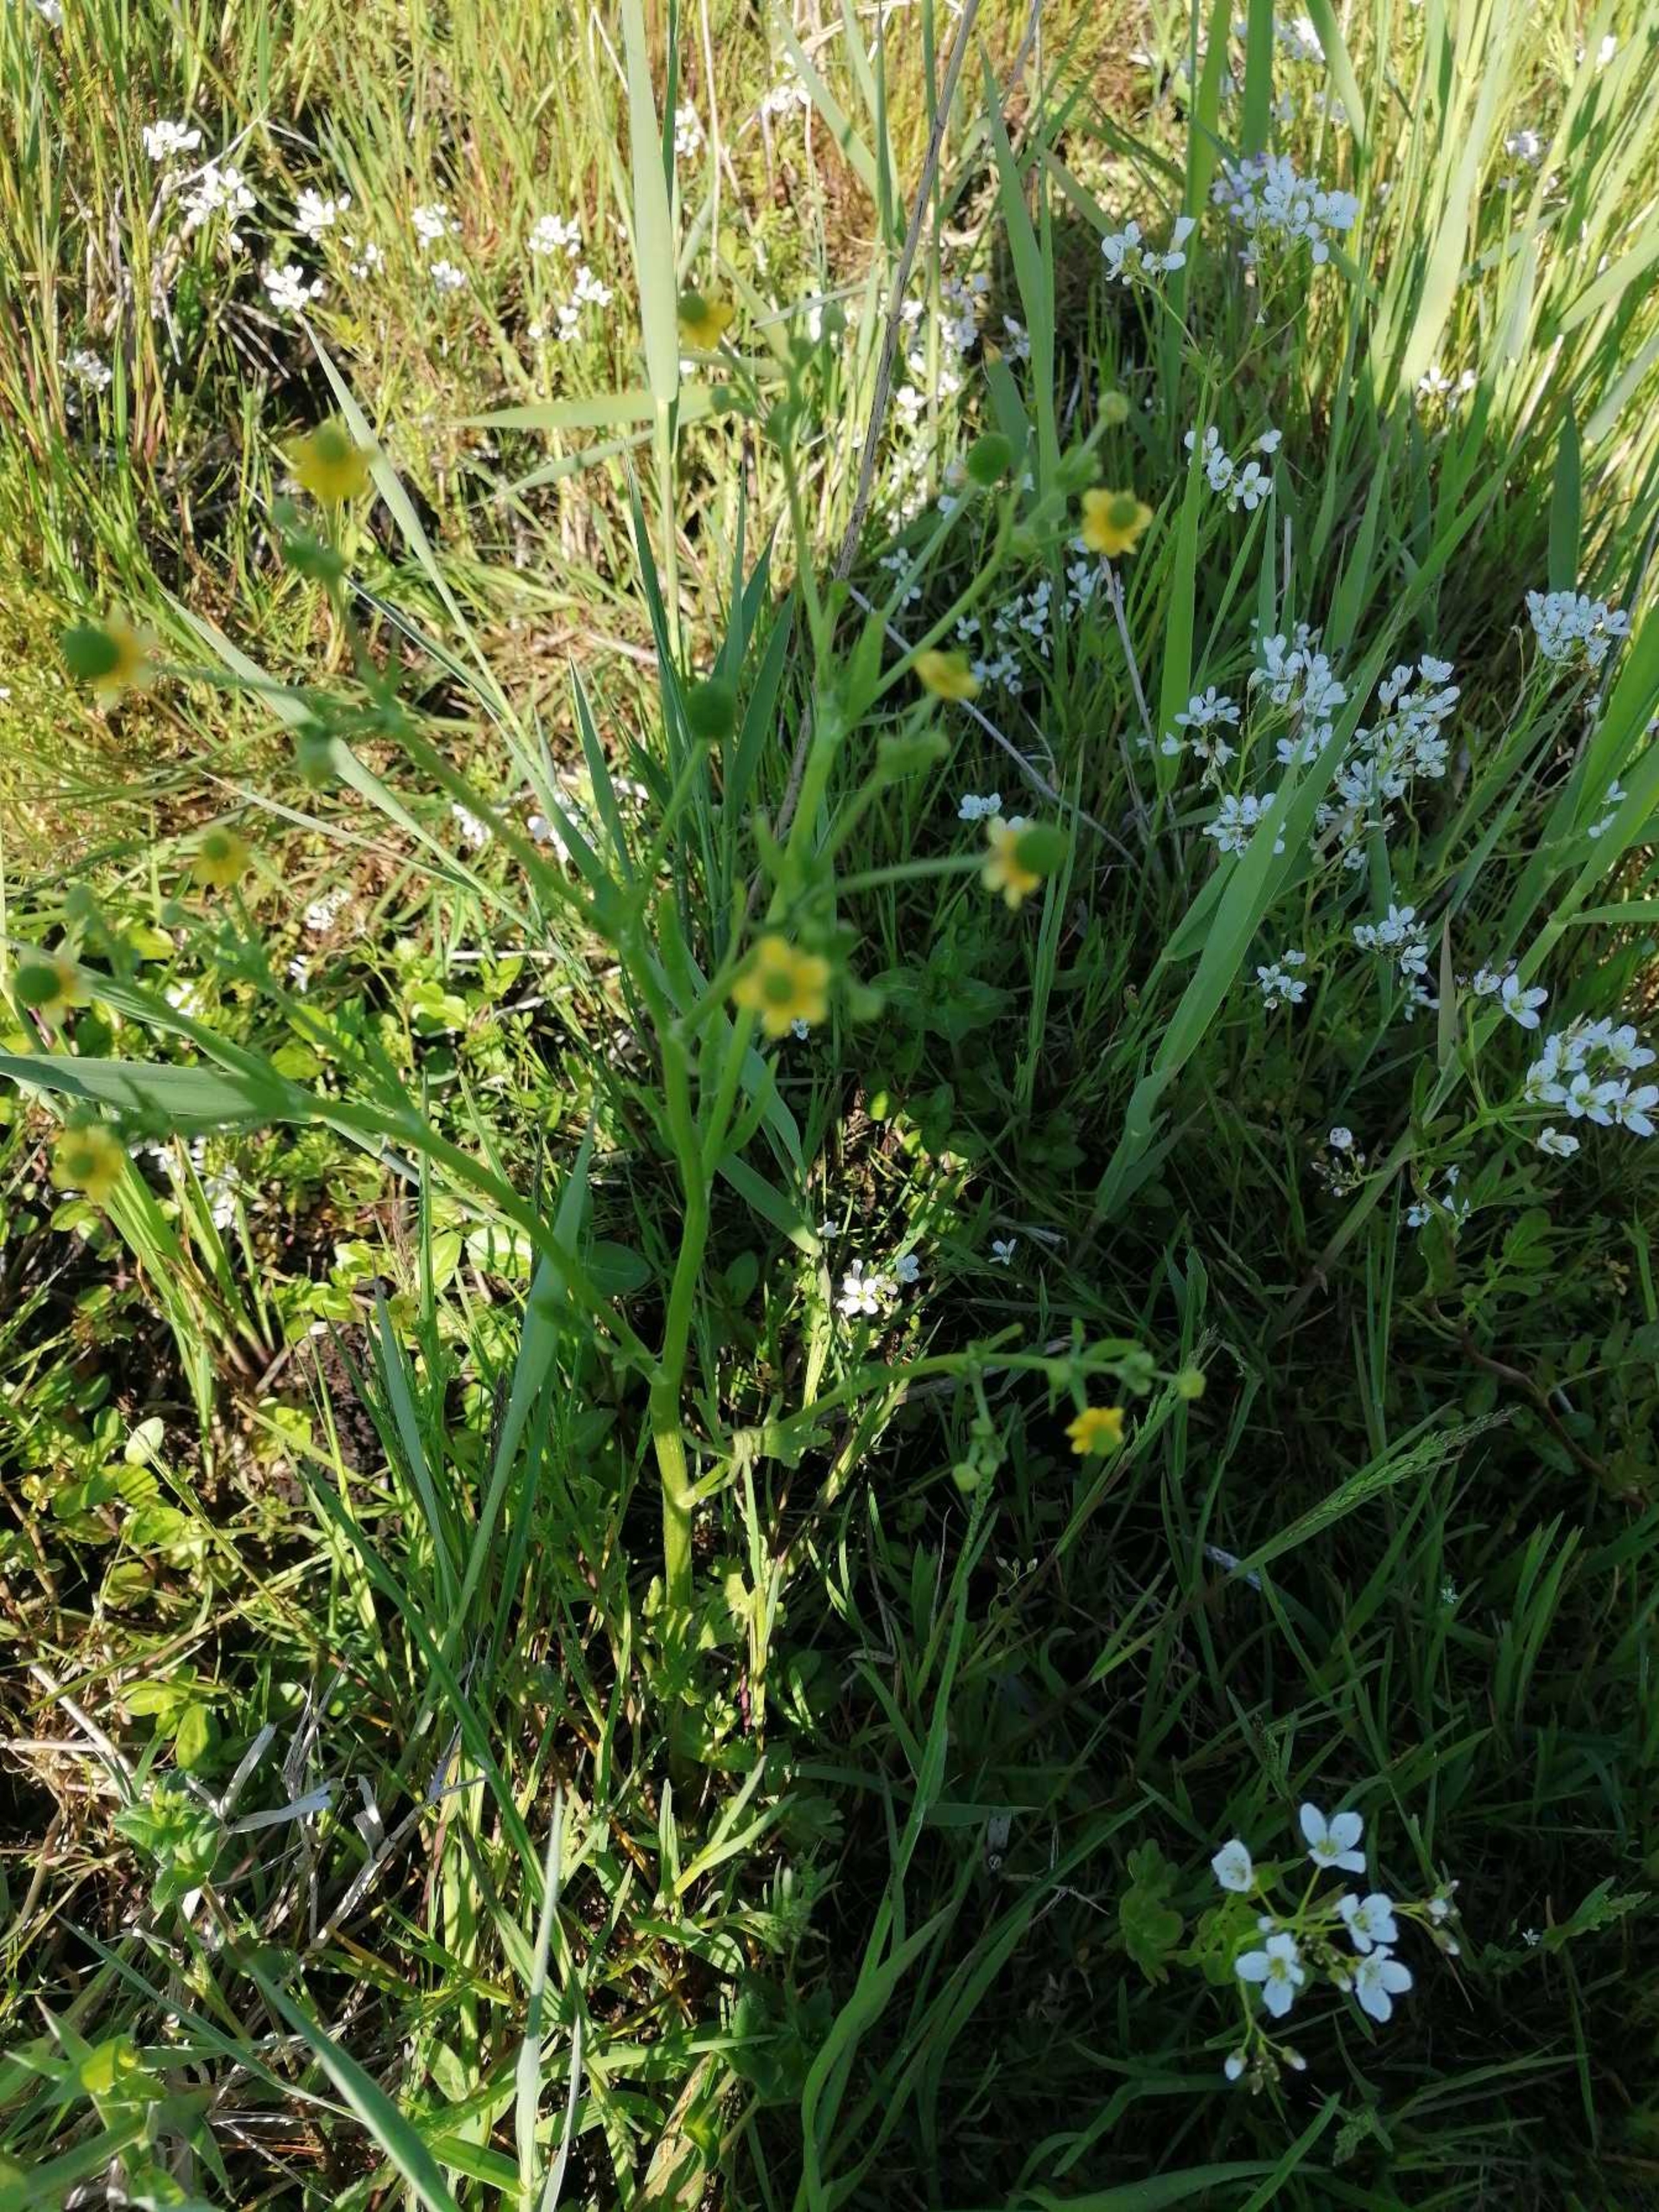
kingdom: Plantae
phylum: Tracheophyta
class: Magnoliopsida
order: Ranunculales
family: Ranunculaceae
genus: Ranunculus
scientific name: Ranunculus sceleratus
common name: Tigger-ranunkel
